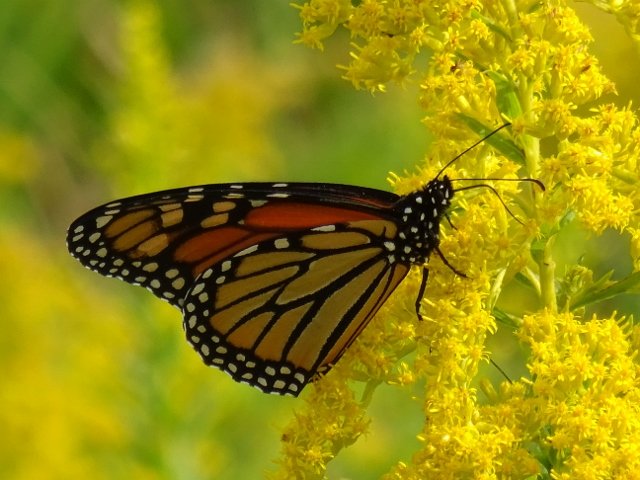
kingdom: Animalia
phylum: Arthropoda
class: Insecta
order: Lepidoptera
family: Nymphalidae
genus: Danaus
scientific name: Danaus plexippus
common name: Monarch
